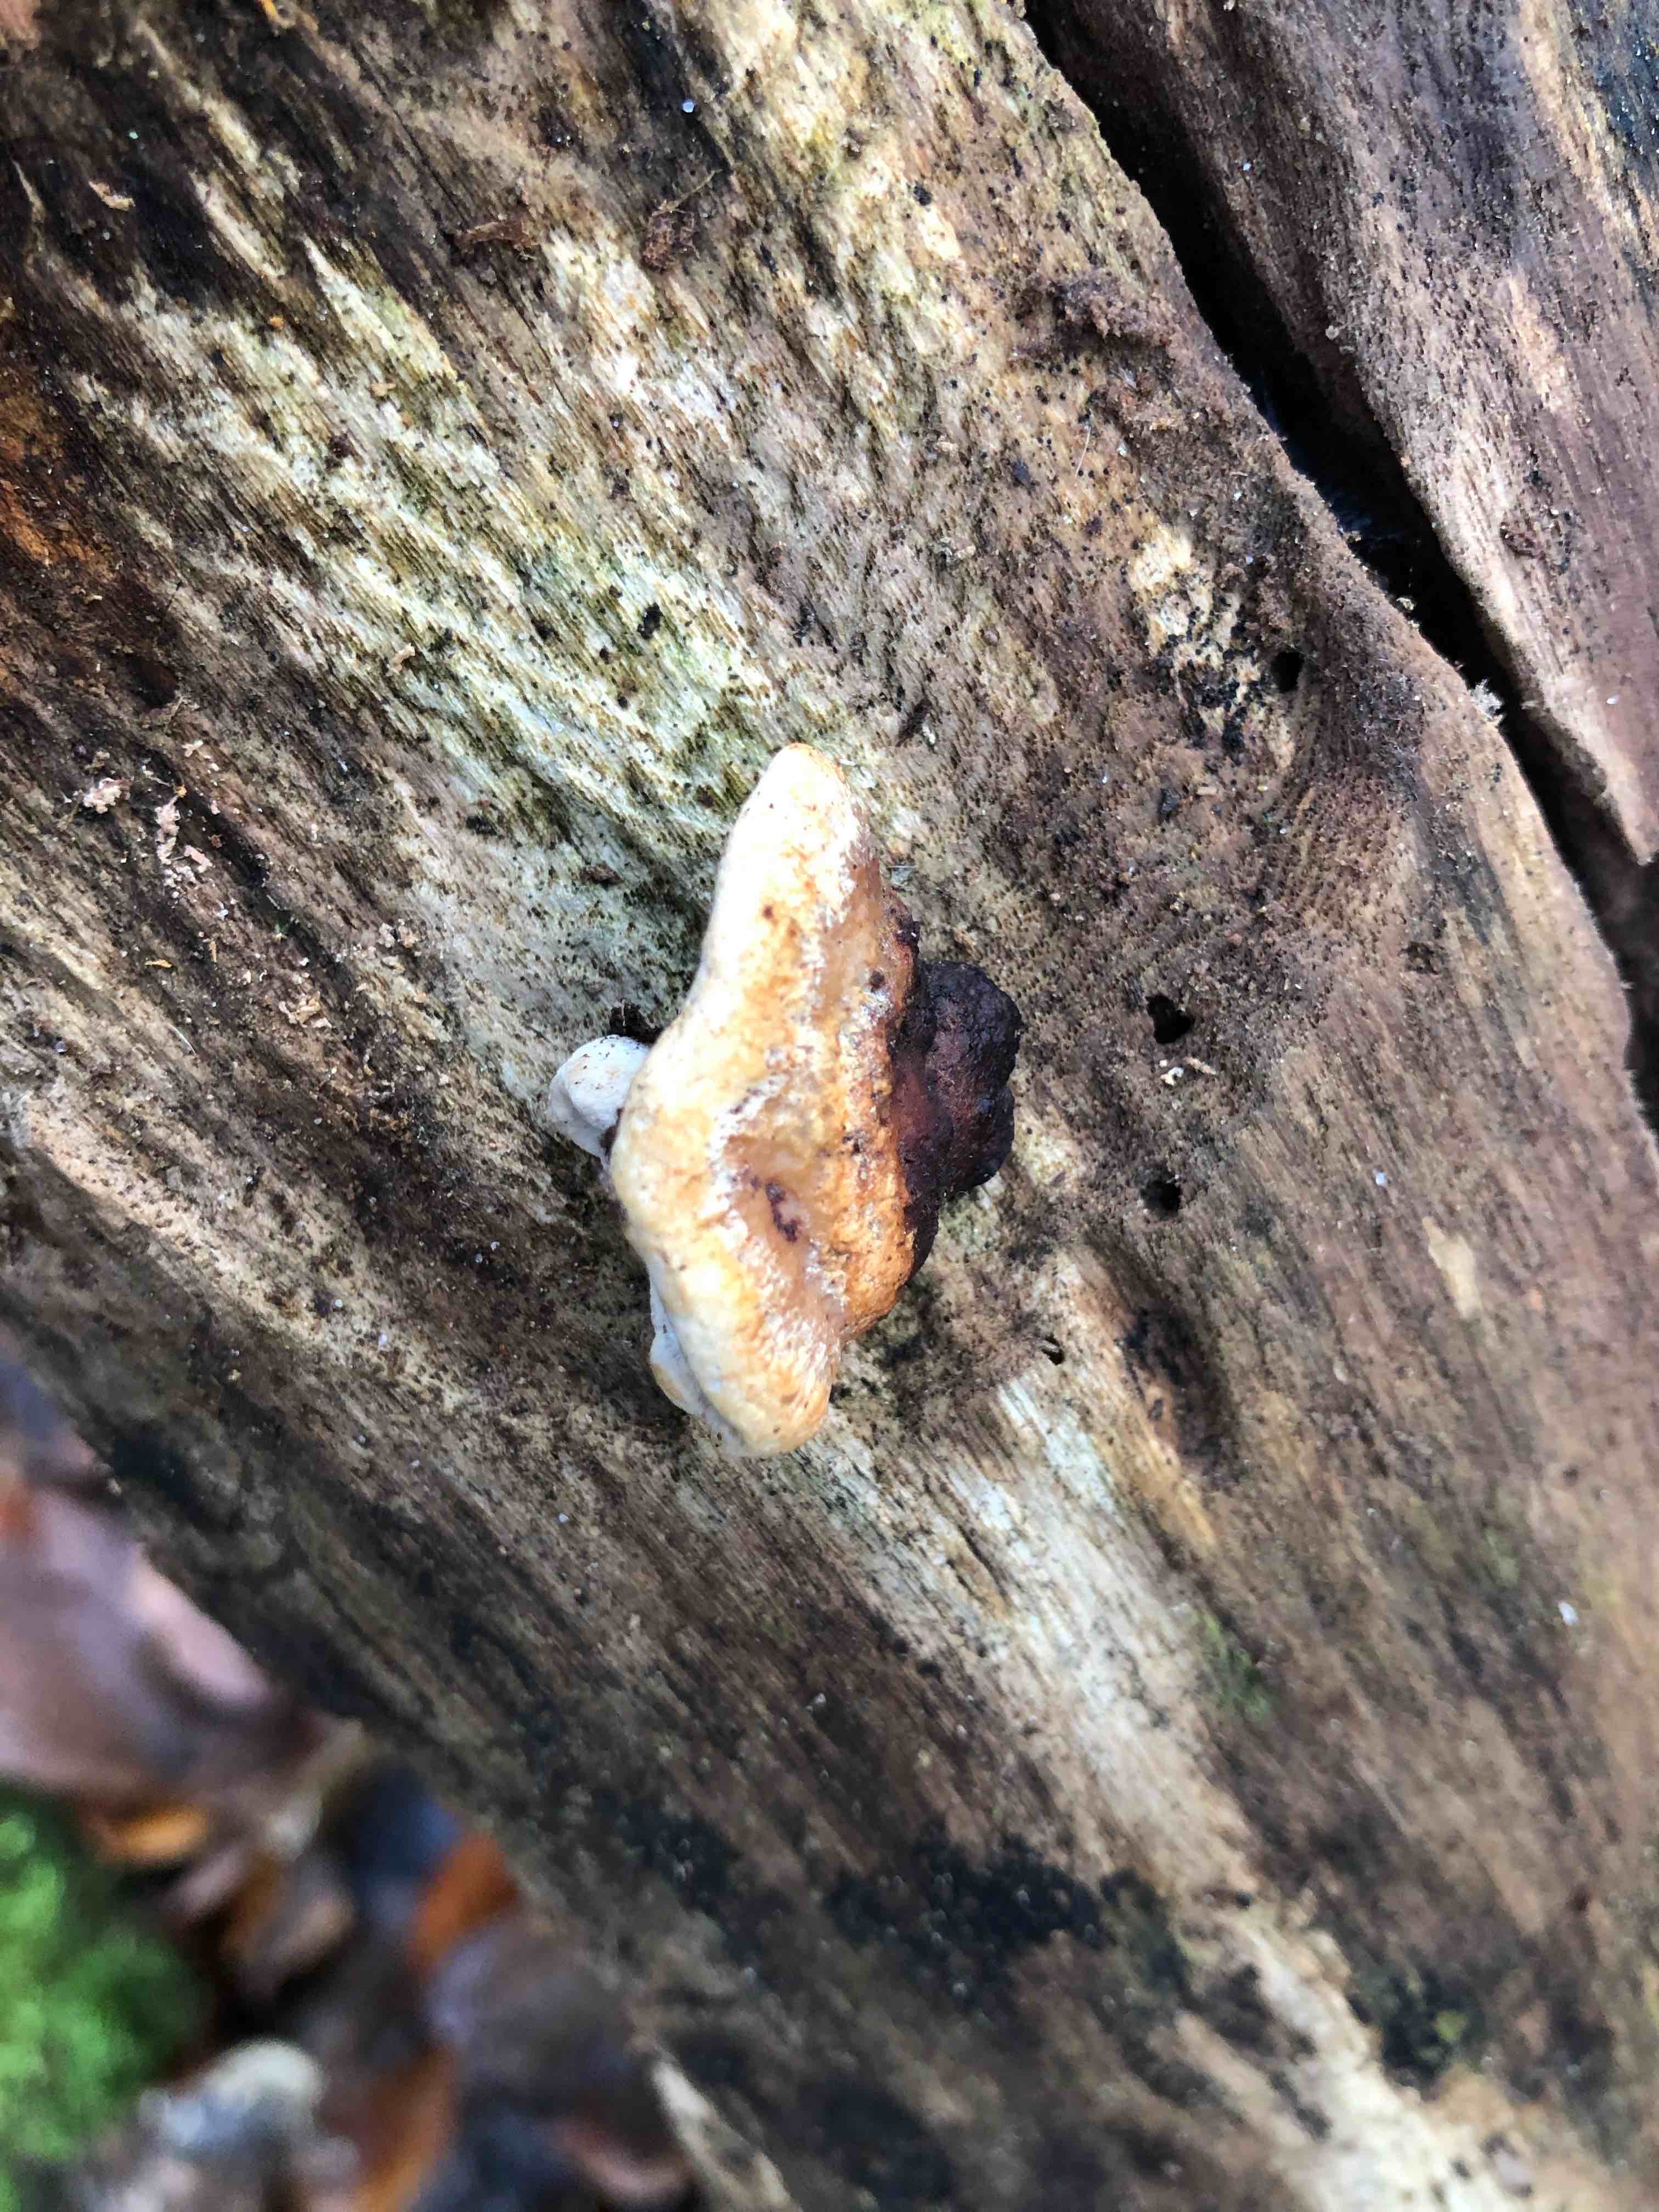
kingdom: Fungi
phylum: Basidiomycota
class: Agaricomycetes
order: Polyporales
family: Incrustoporiaceae
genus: Skeletocutis
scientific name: Skeletocutis nemoralis
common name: stor krystalporesvamp
